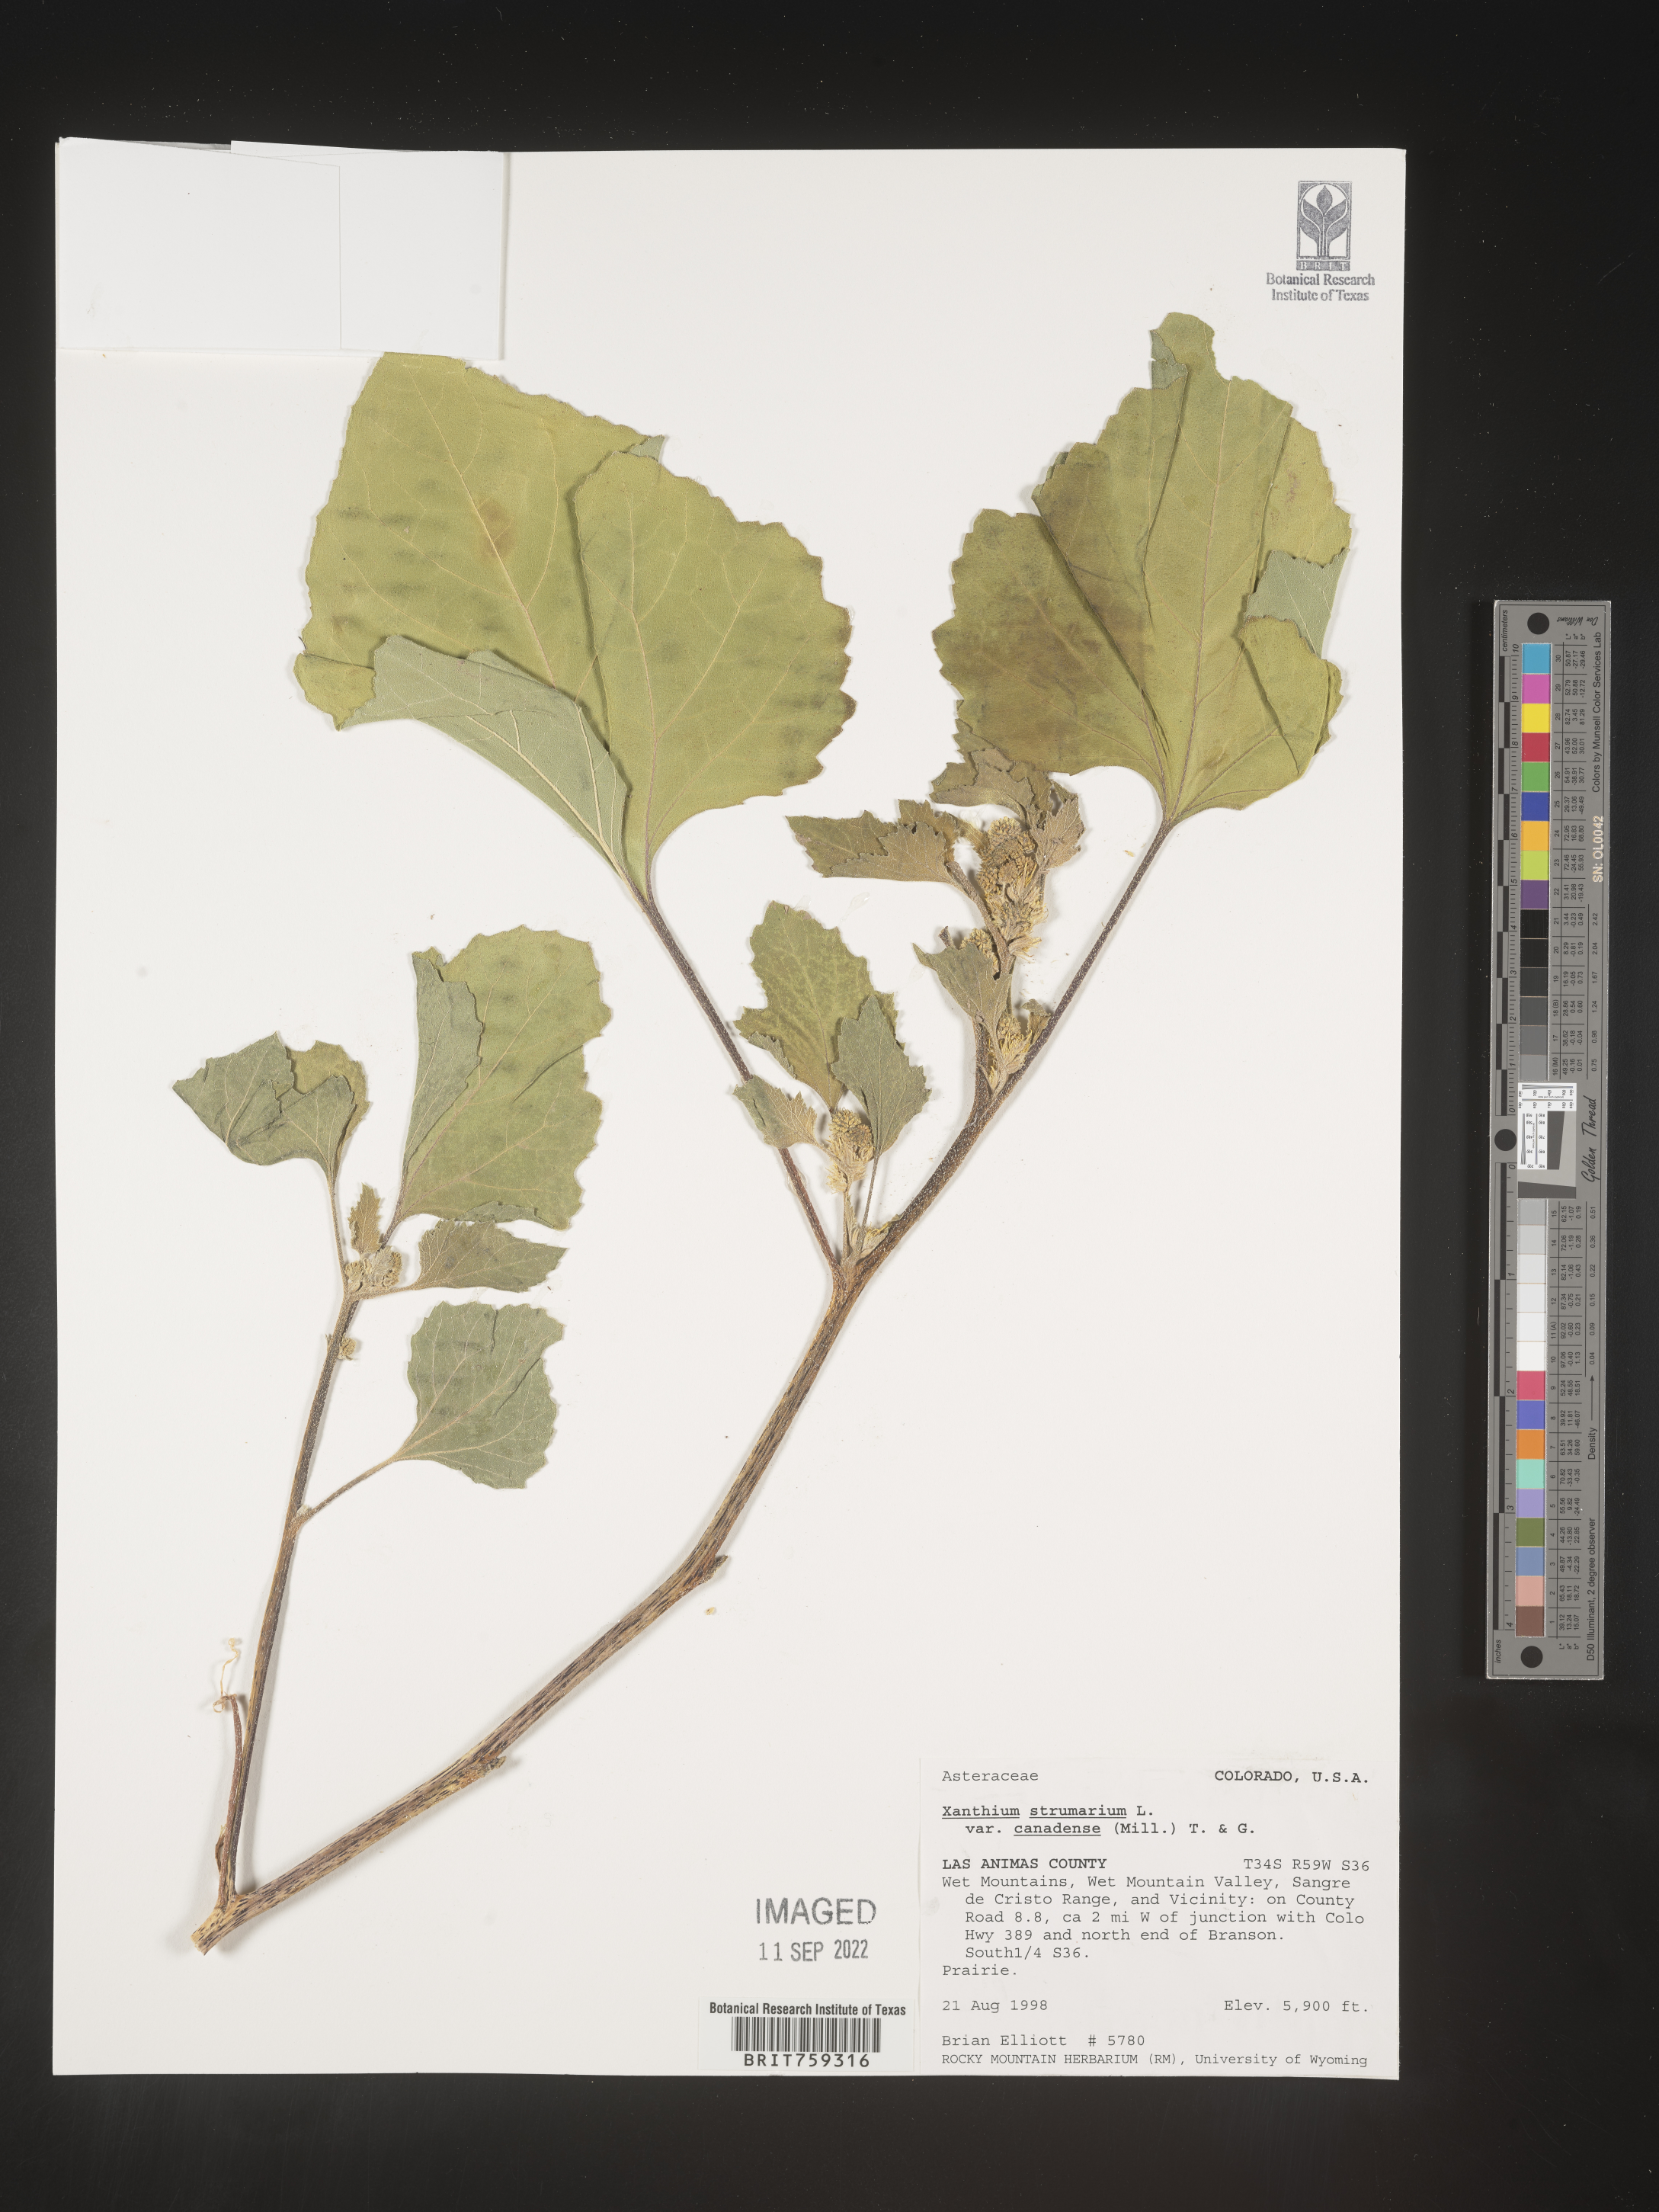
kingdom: Plantae
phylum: Tracheophyta
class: Magnoliopsida
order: Asterales
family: Asteraceae
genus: Xanthium
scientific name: Xanthium orientale
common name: Californian burr
